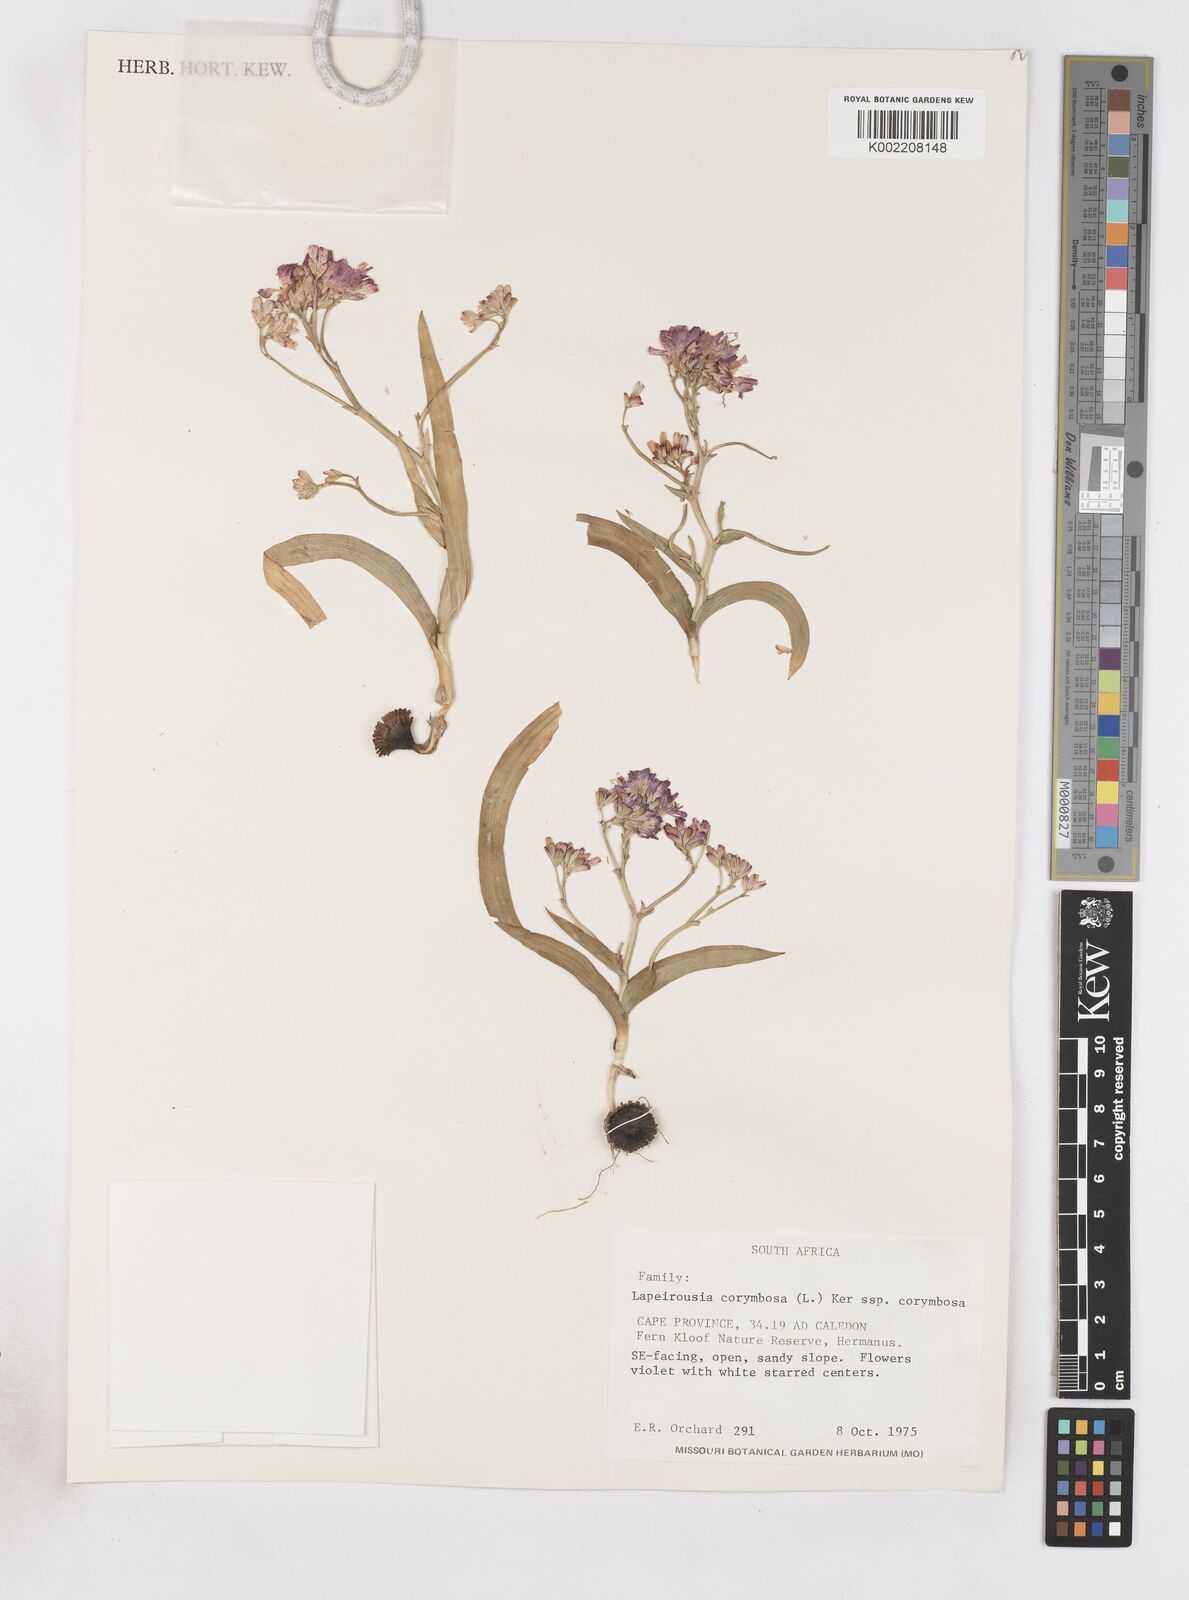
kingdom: Plantae
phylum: Tracheophyta
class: Liliopsida
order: Asparagales
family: Iridaceae
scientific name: Iridaceae
